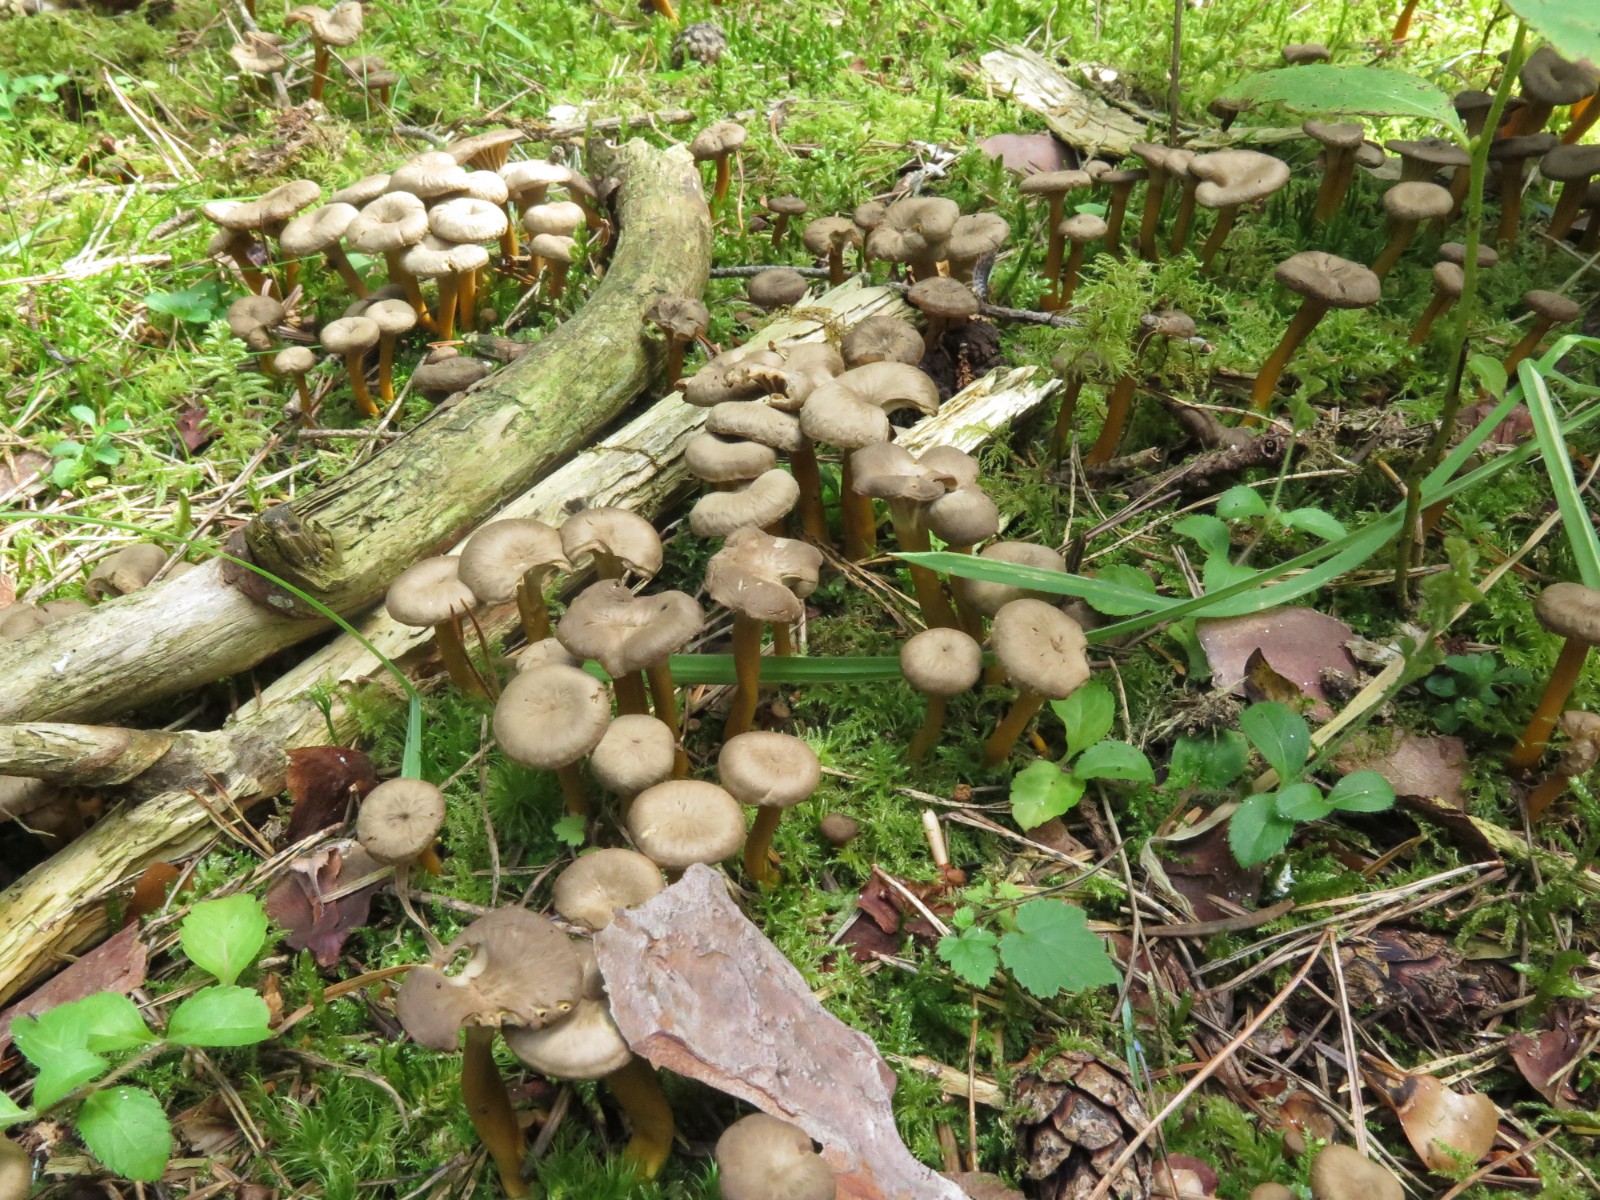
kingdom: Fungi
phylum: Basidiomycota
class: Agaricomycetes
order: Cantharellales
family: Hydnaceae
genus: Craterellus
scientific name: Craterellus tubaeformis
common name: tragt-kantarel
